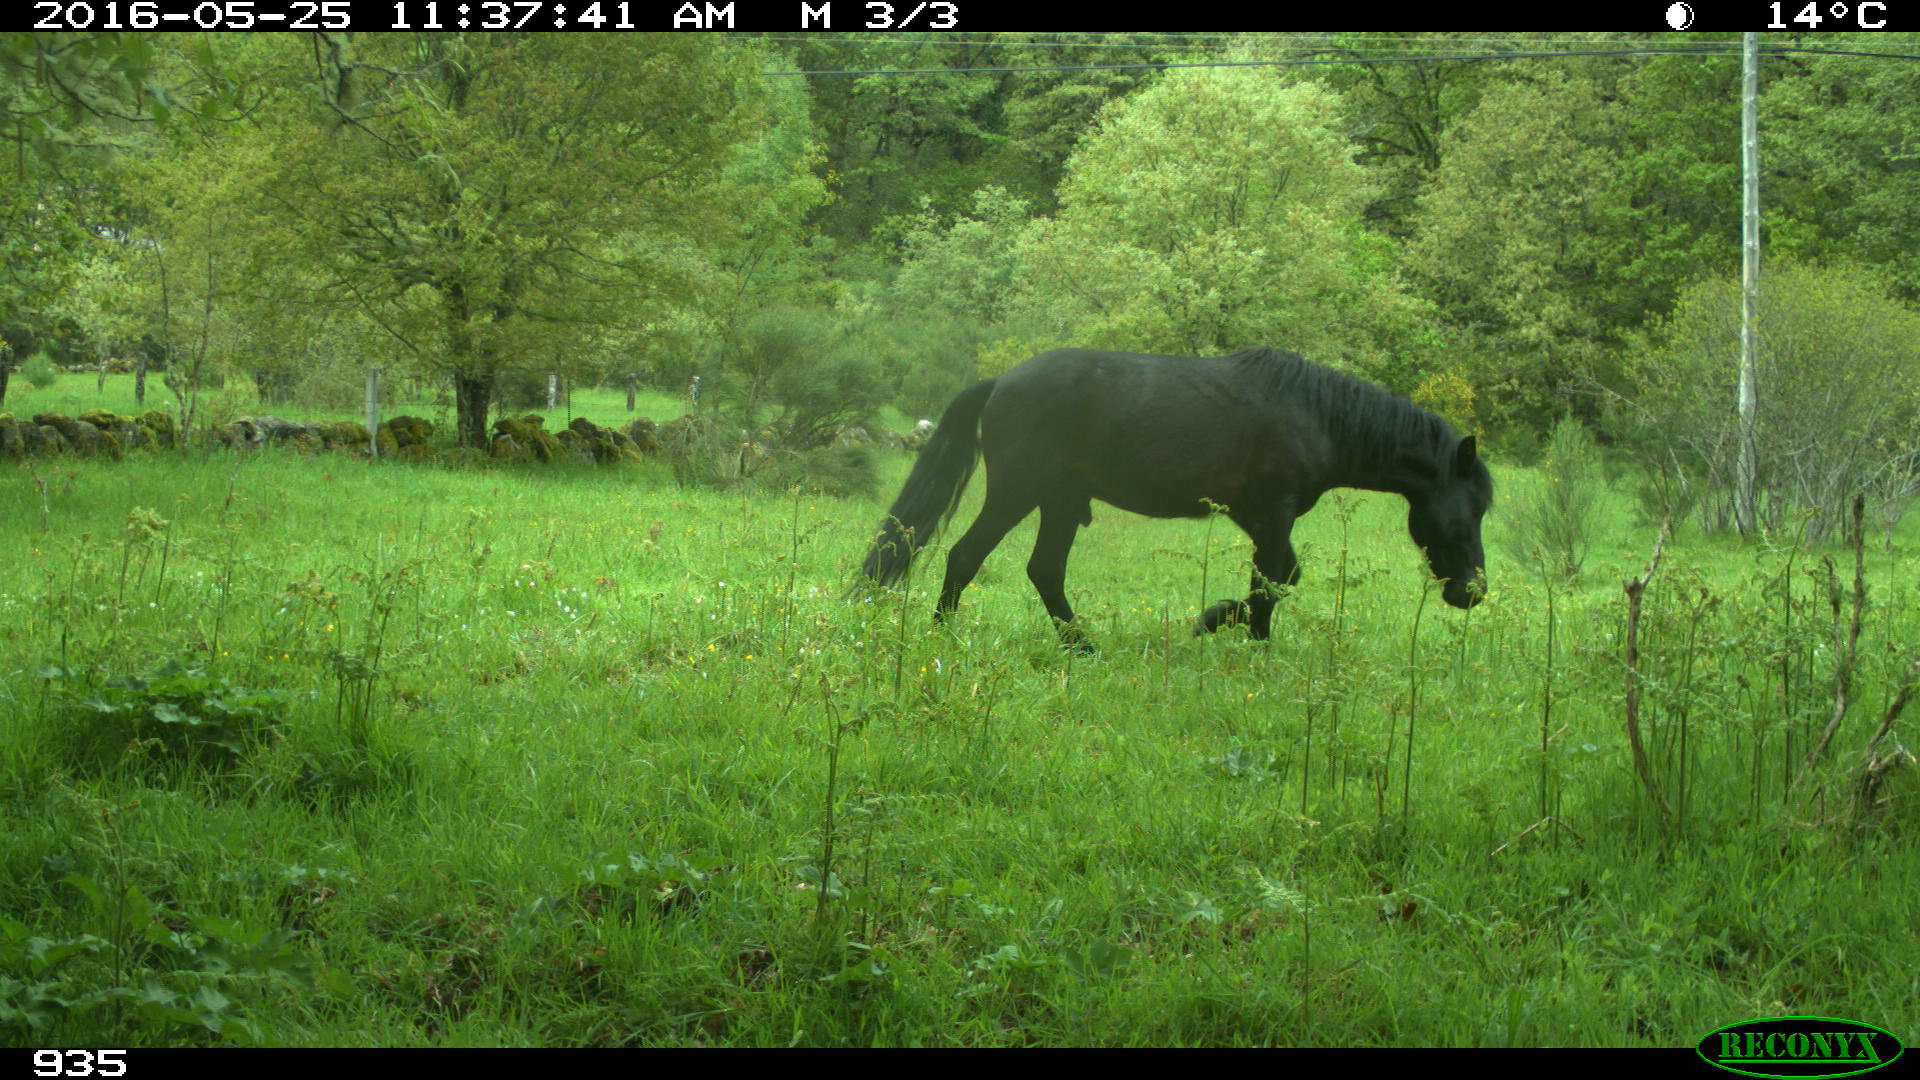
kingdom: Animalia
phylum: Chordata
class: Mammalia
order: Perissodactyla
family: Equidae
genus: Equus
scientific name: Equus caballus
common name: Horse
